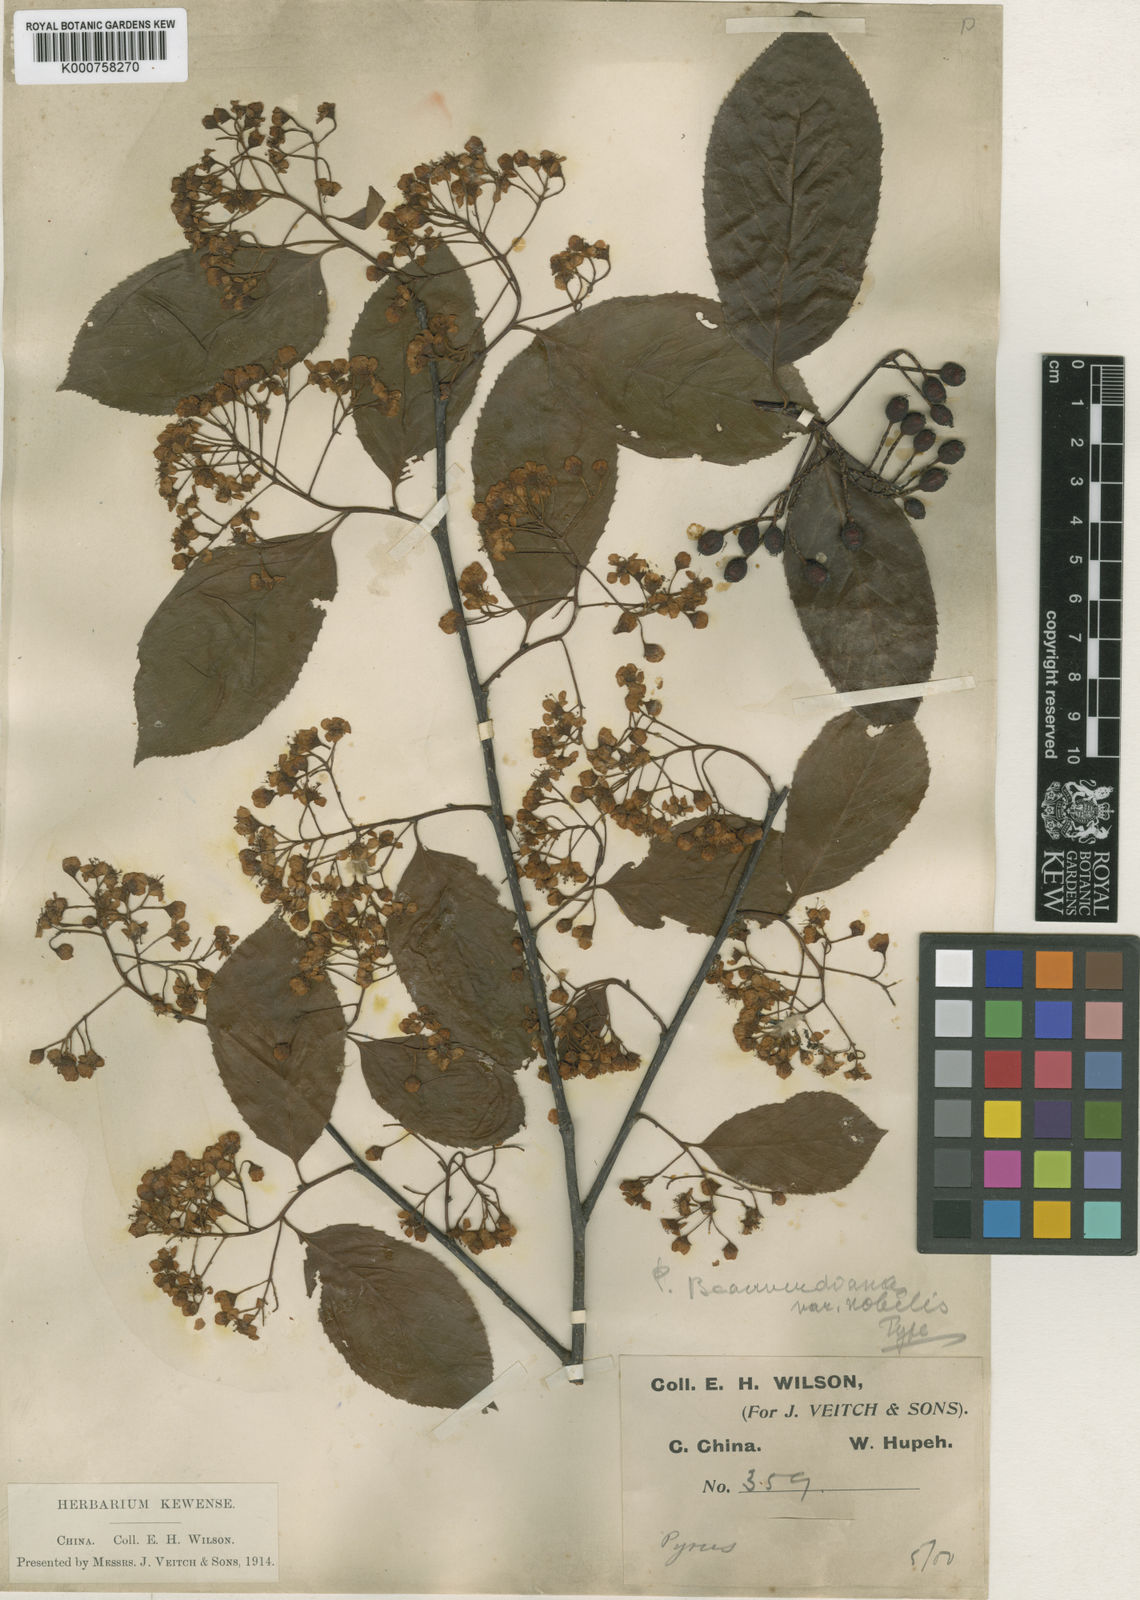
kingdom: Plantae
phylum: Tracheophyta
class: Magnoliopsida
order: Rosales
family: Rosaceae
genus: Pourthiaea
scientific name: Pourthiaea beauverdiana
